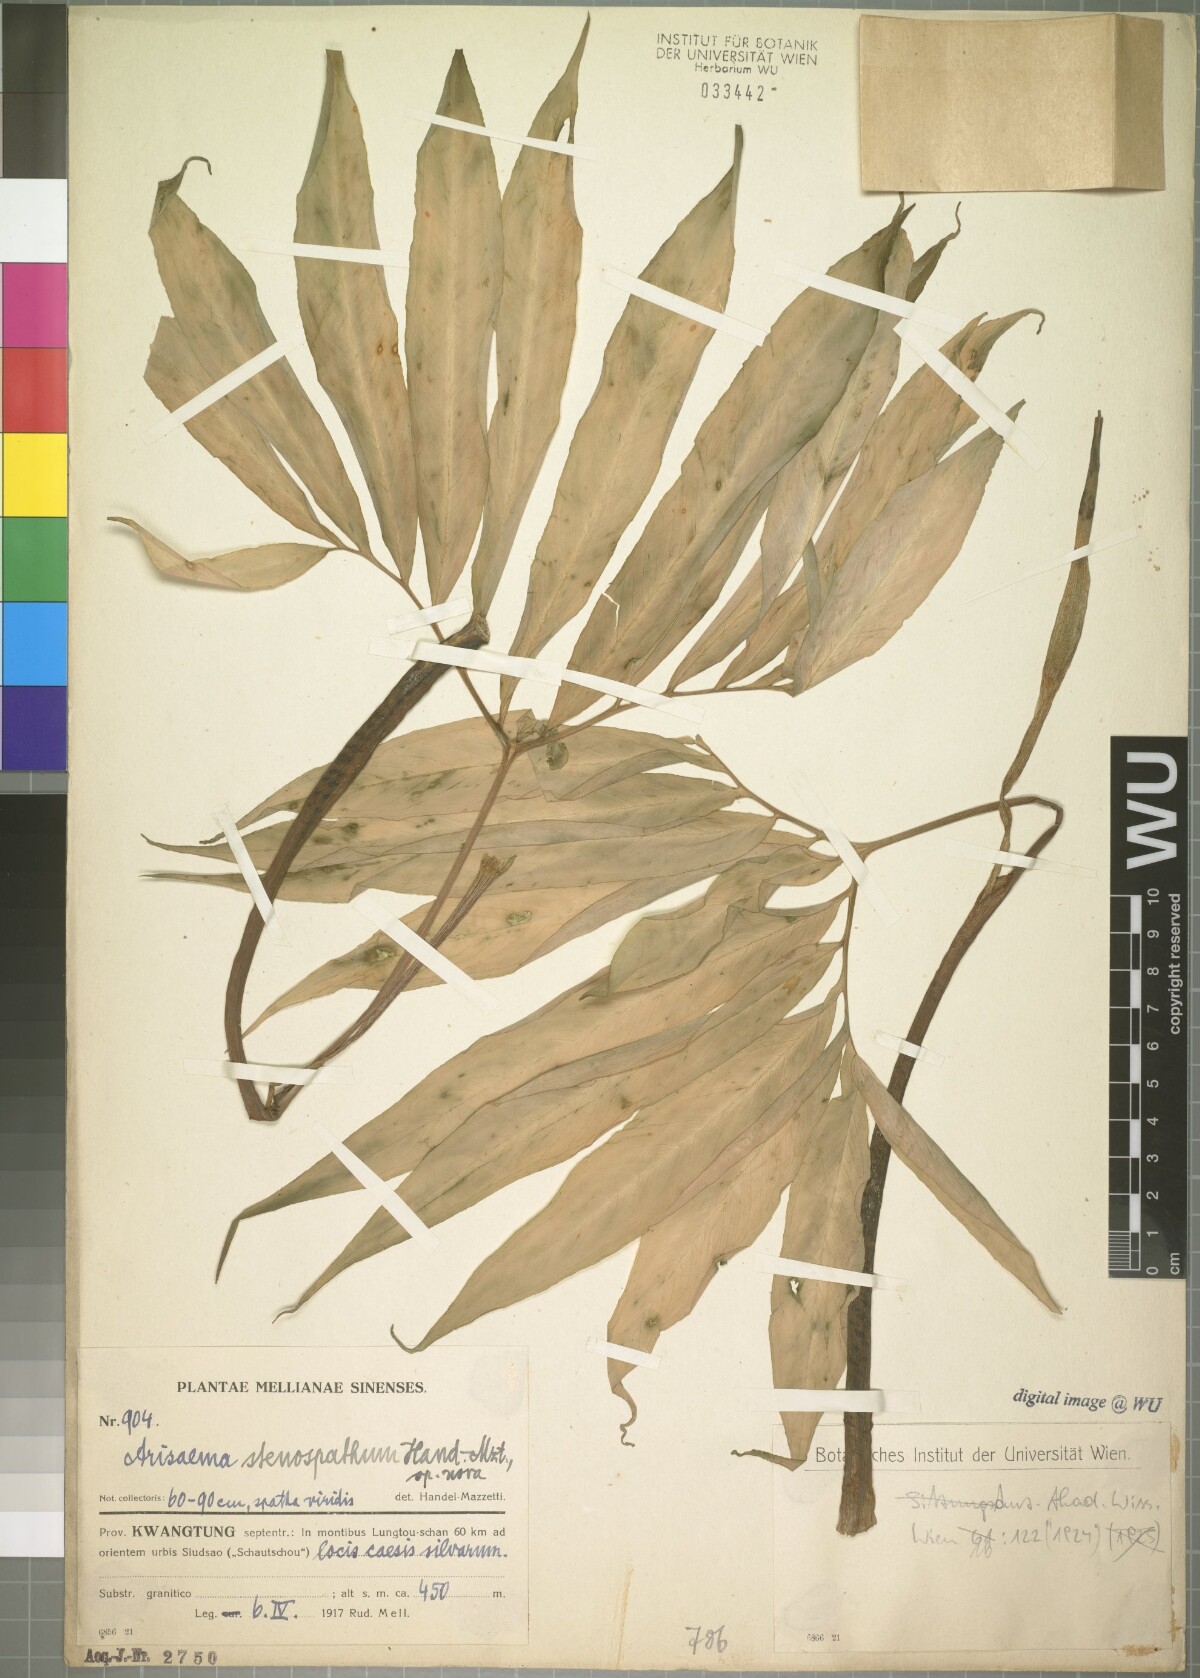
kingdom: Plantae
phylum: Tracheophyta
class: Liliopsida
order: Alismatales
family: Araceae
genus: Arisaema
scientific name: Arisaema heterophyllum
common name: Dancing crane cobra lily
